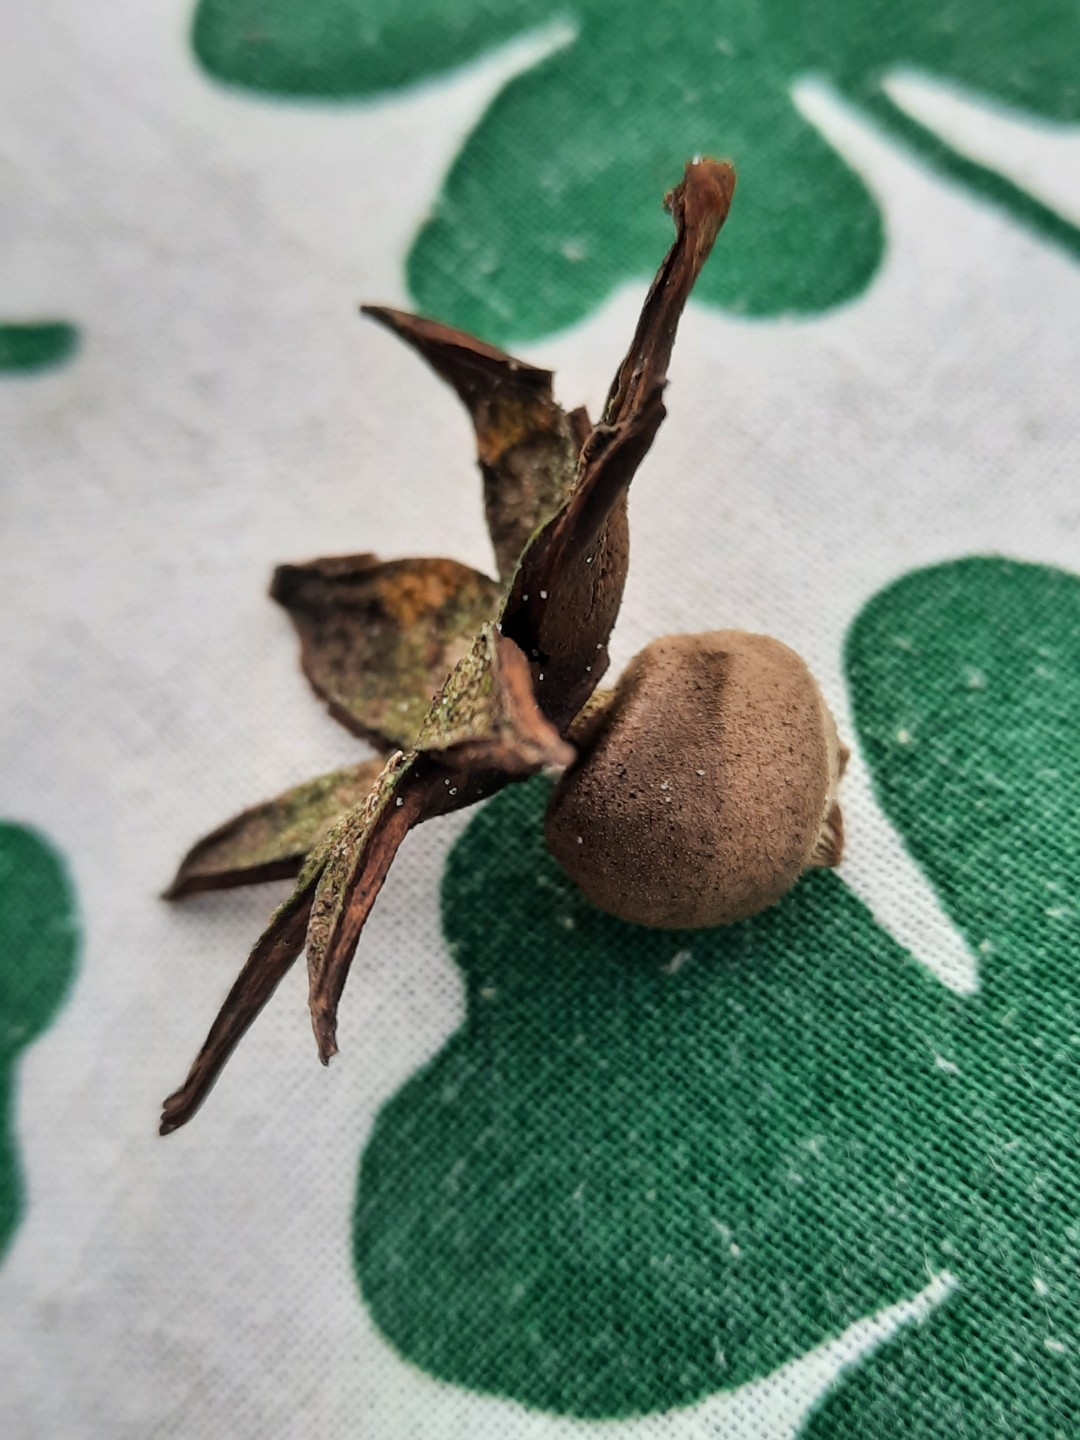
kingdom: Fungi
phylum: Basidiomycota
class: Agaricomycetes
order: Geastrales
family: Geastraceae
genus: Geastrum
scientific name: Geastrum campestre
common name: ru stjernebold
